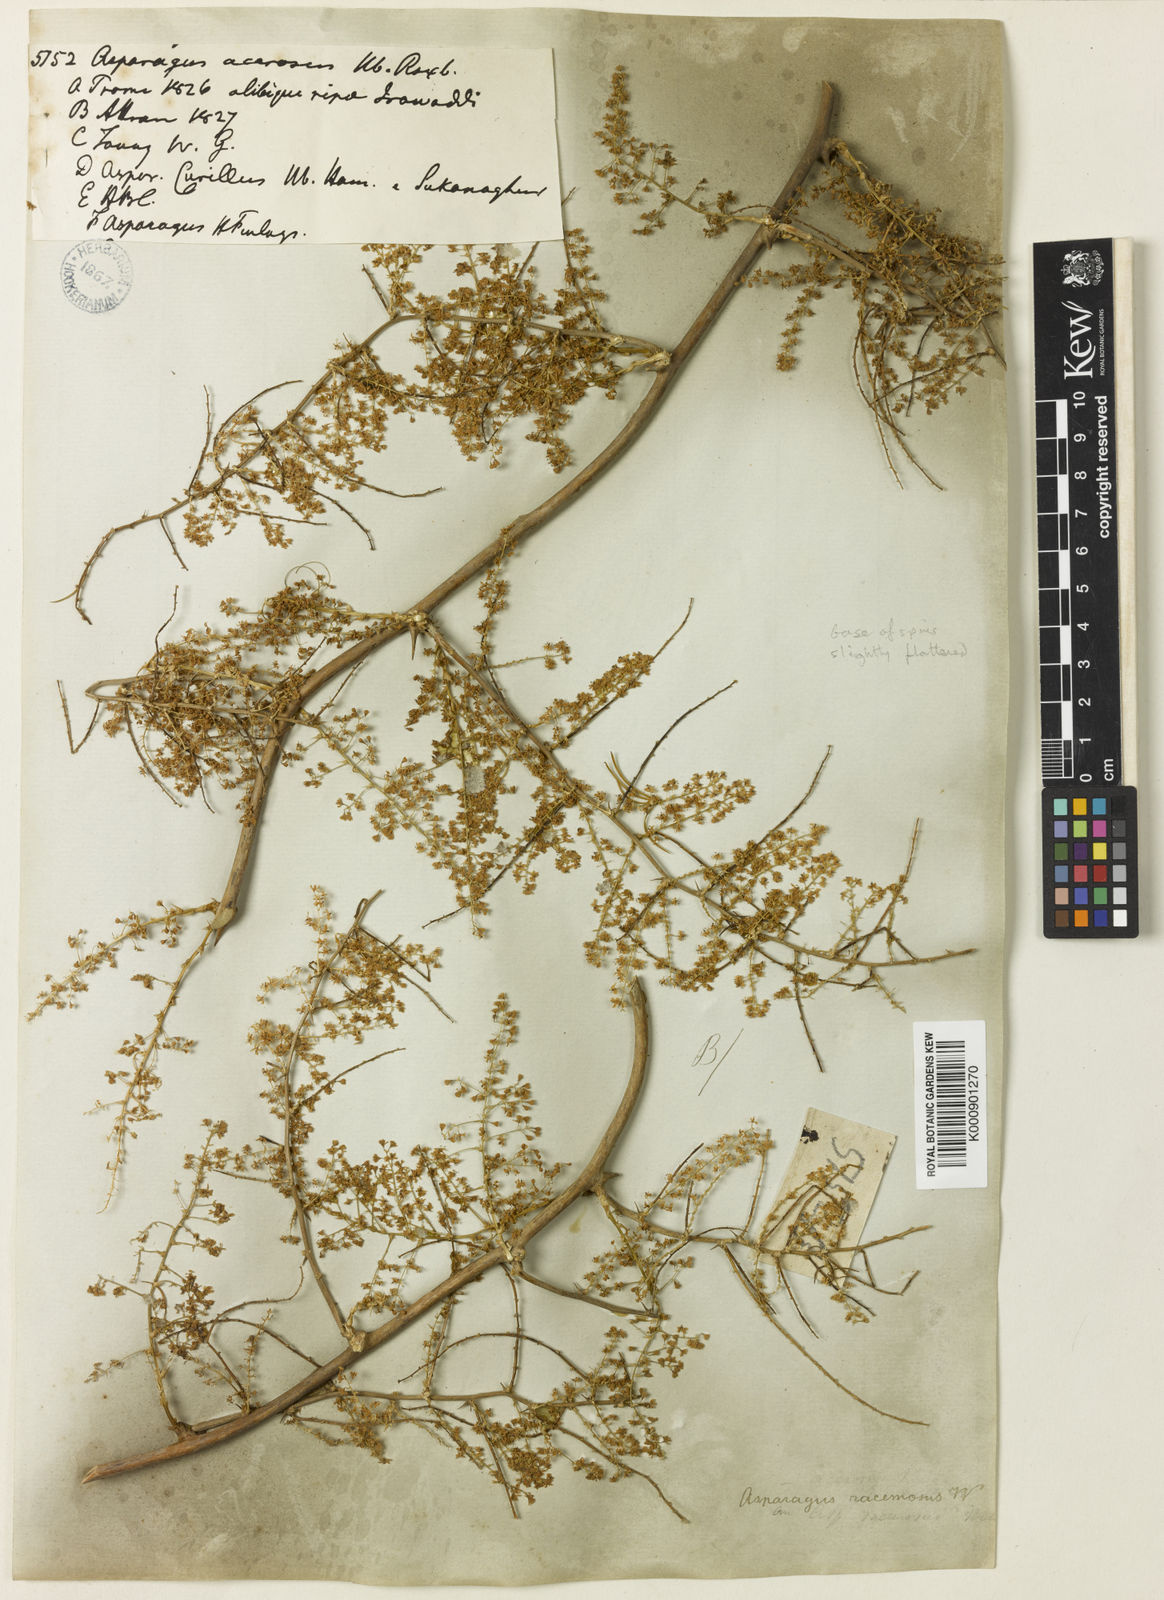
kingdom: Plantae
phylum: Tracheophyta
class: Liliopsida
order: Asparagales
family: Asparagaceae
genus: Asparagus
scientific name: Asparagus racemosus
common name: Asparagus-fern
